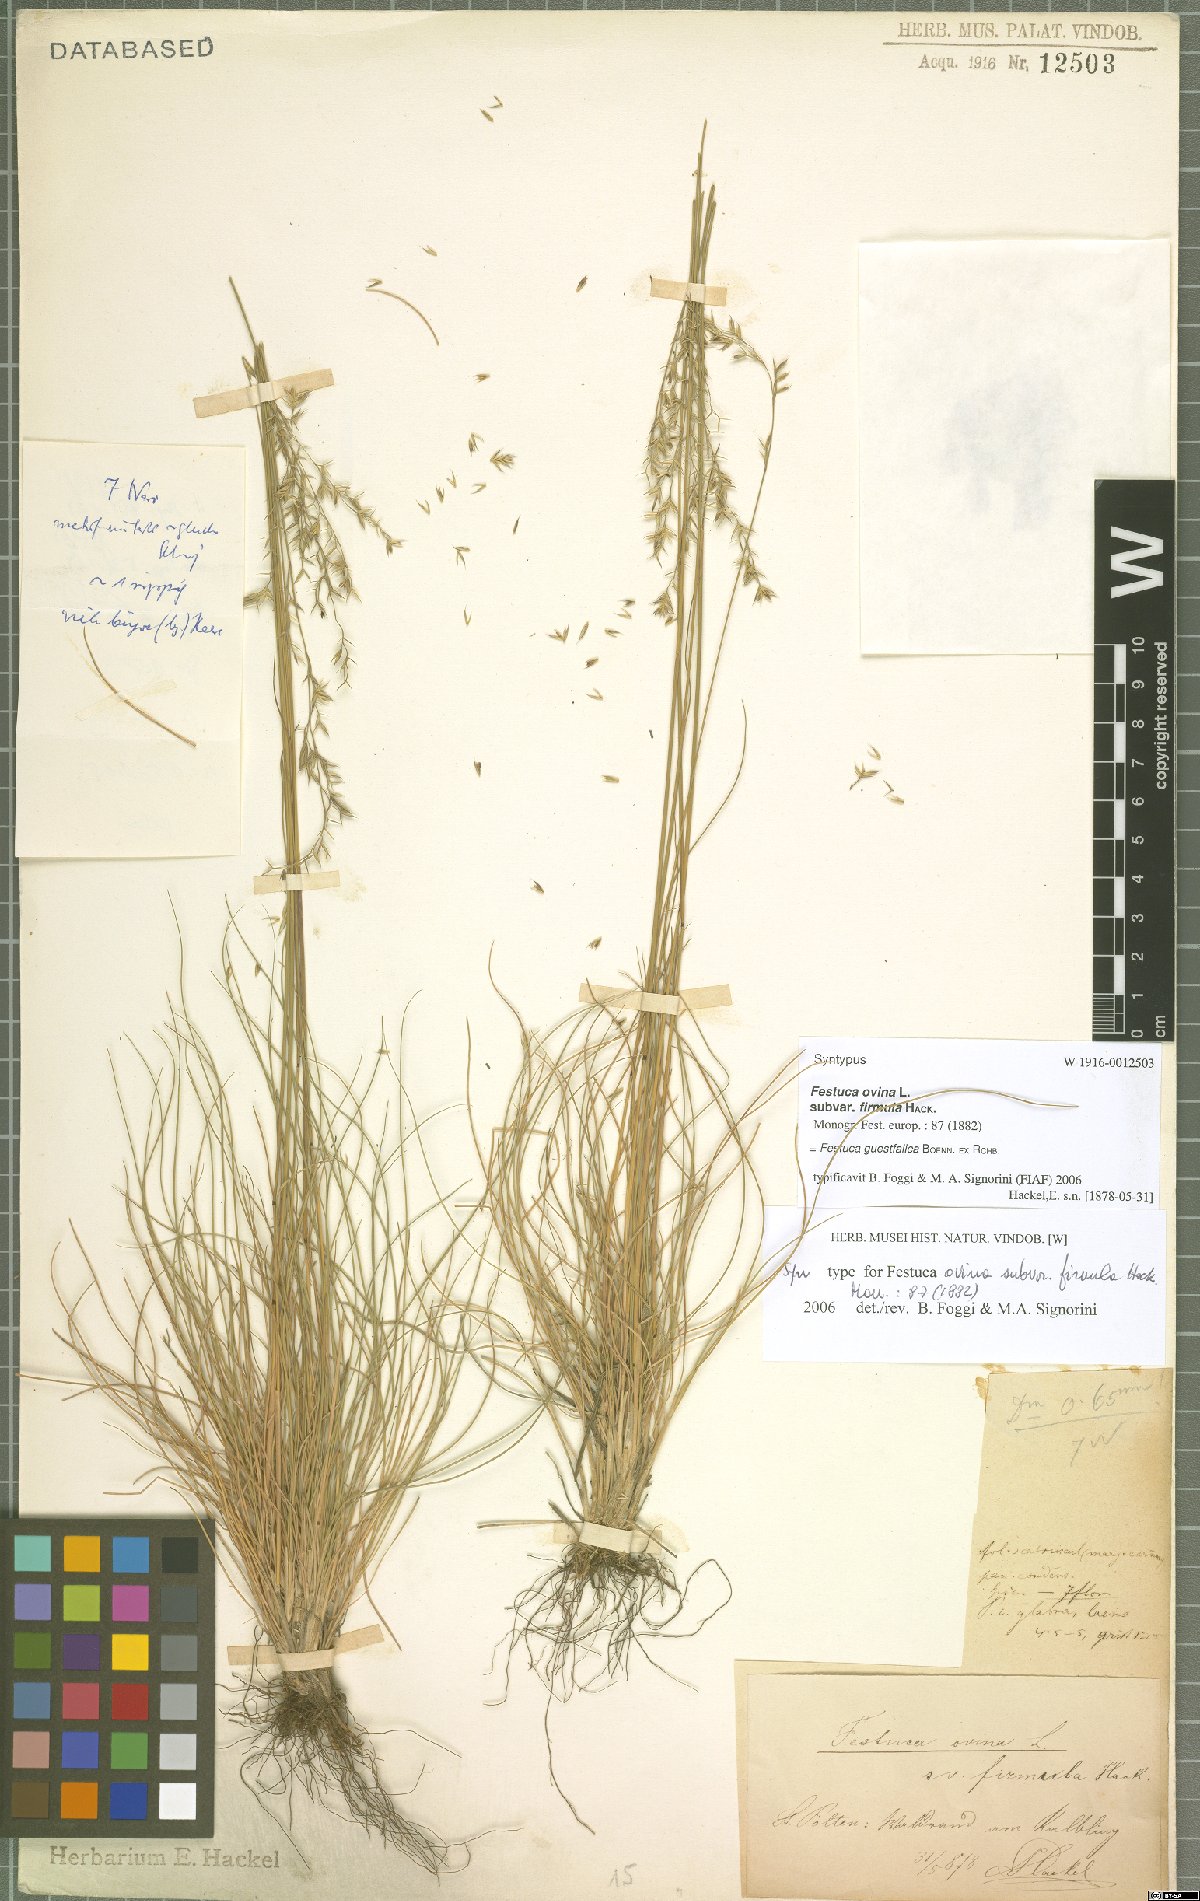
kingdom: Plantae
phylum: Tracheophyta
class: Liliopsida
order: Poales
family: Poaceae
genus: Festuca
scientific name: Festuca guestfalica
